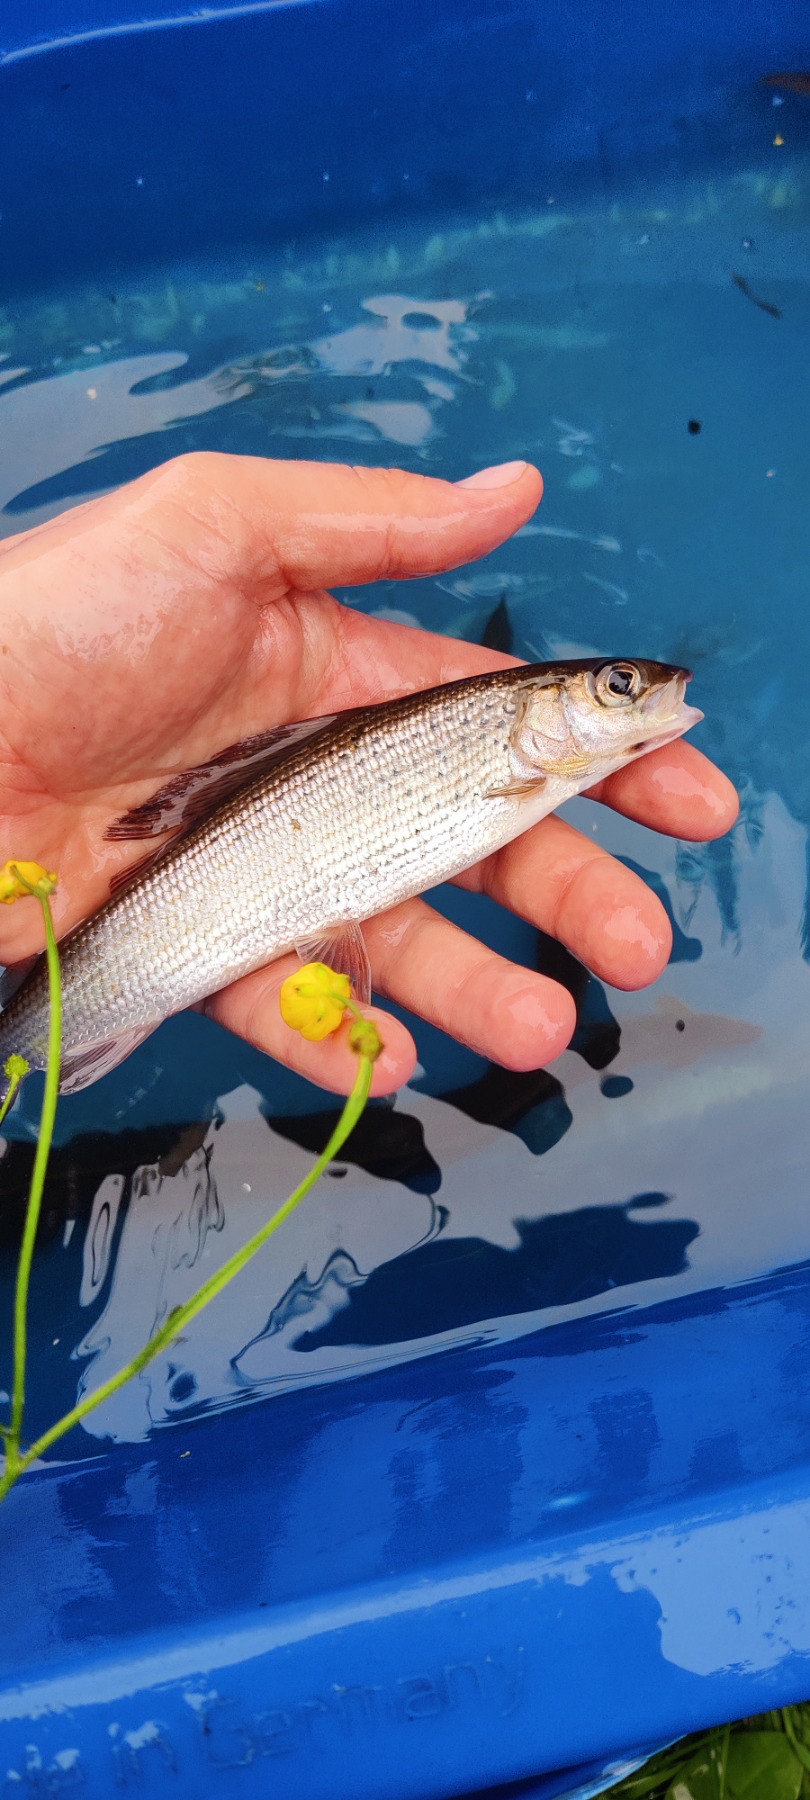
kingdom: Animalia
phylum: Chordata
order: Salmoniformes
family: Salmonidae
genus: Thymallus
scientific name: Thymallus thymallus
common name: Stalling
